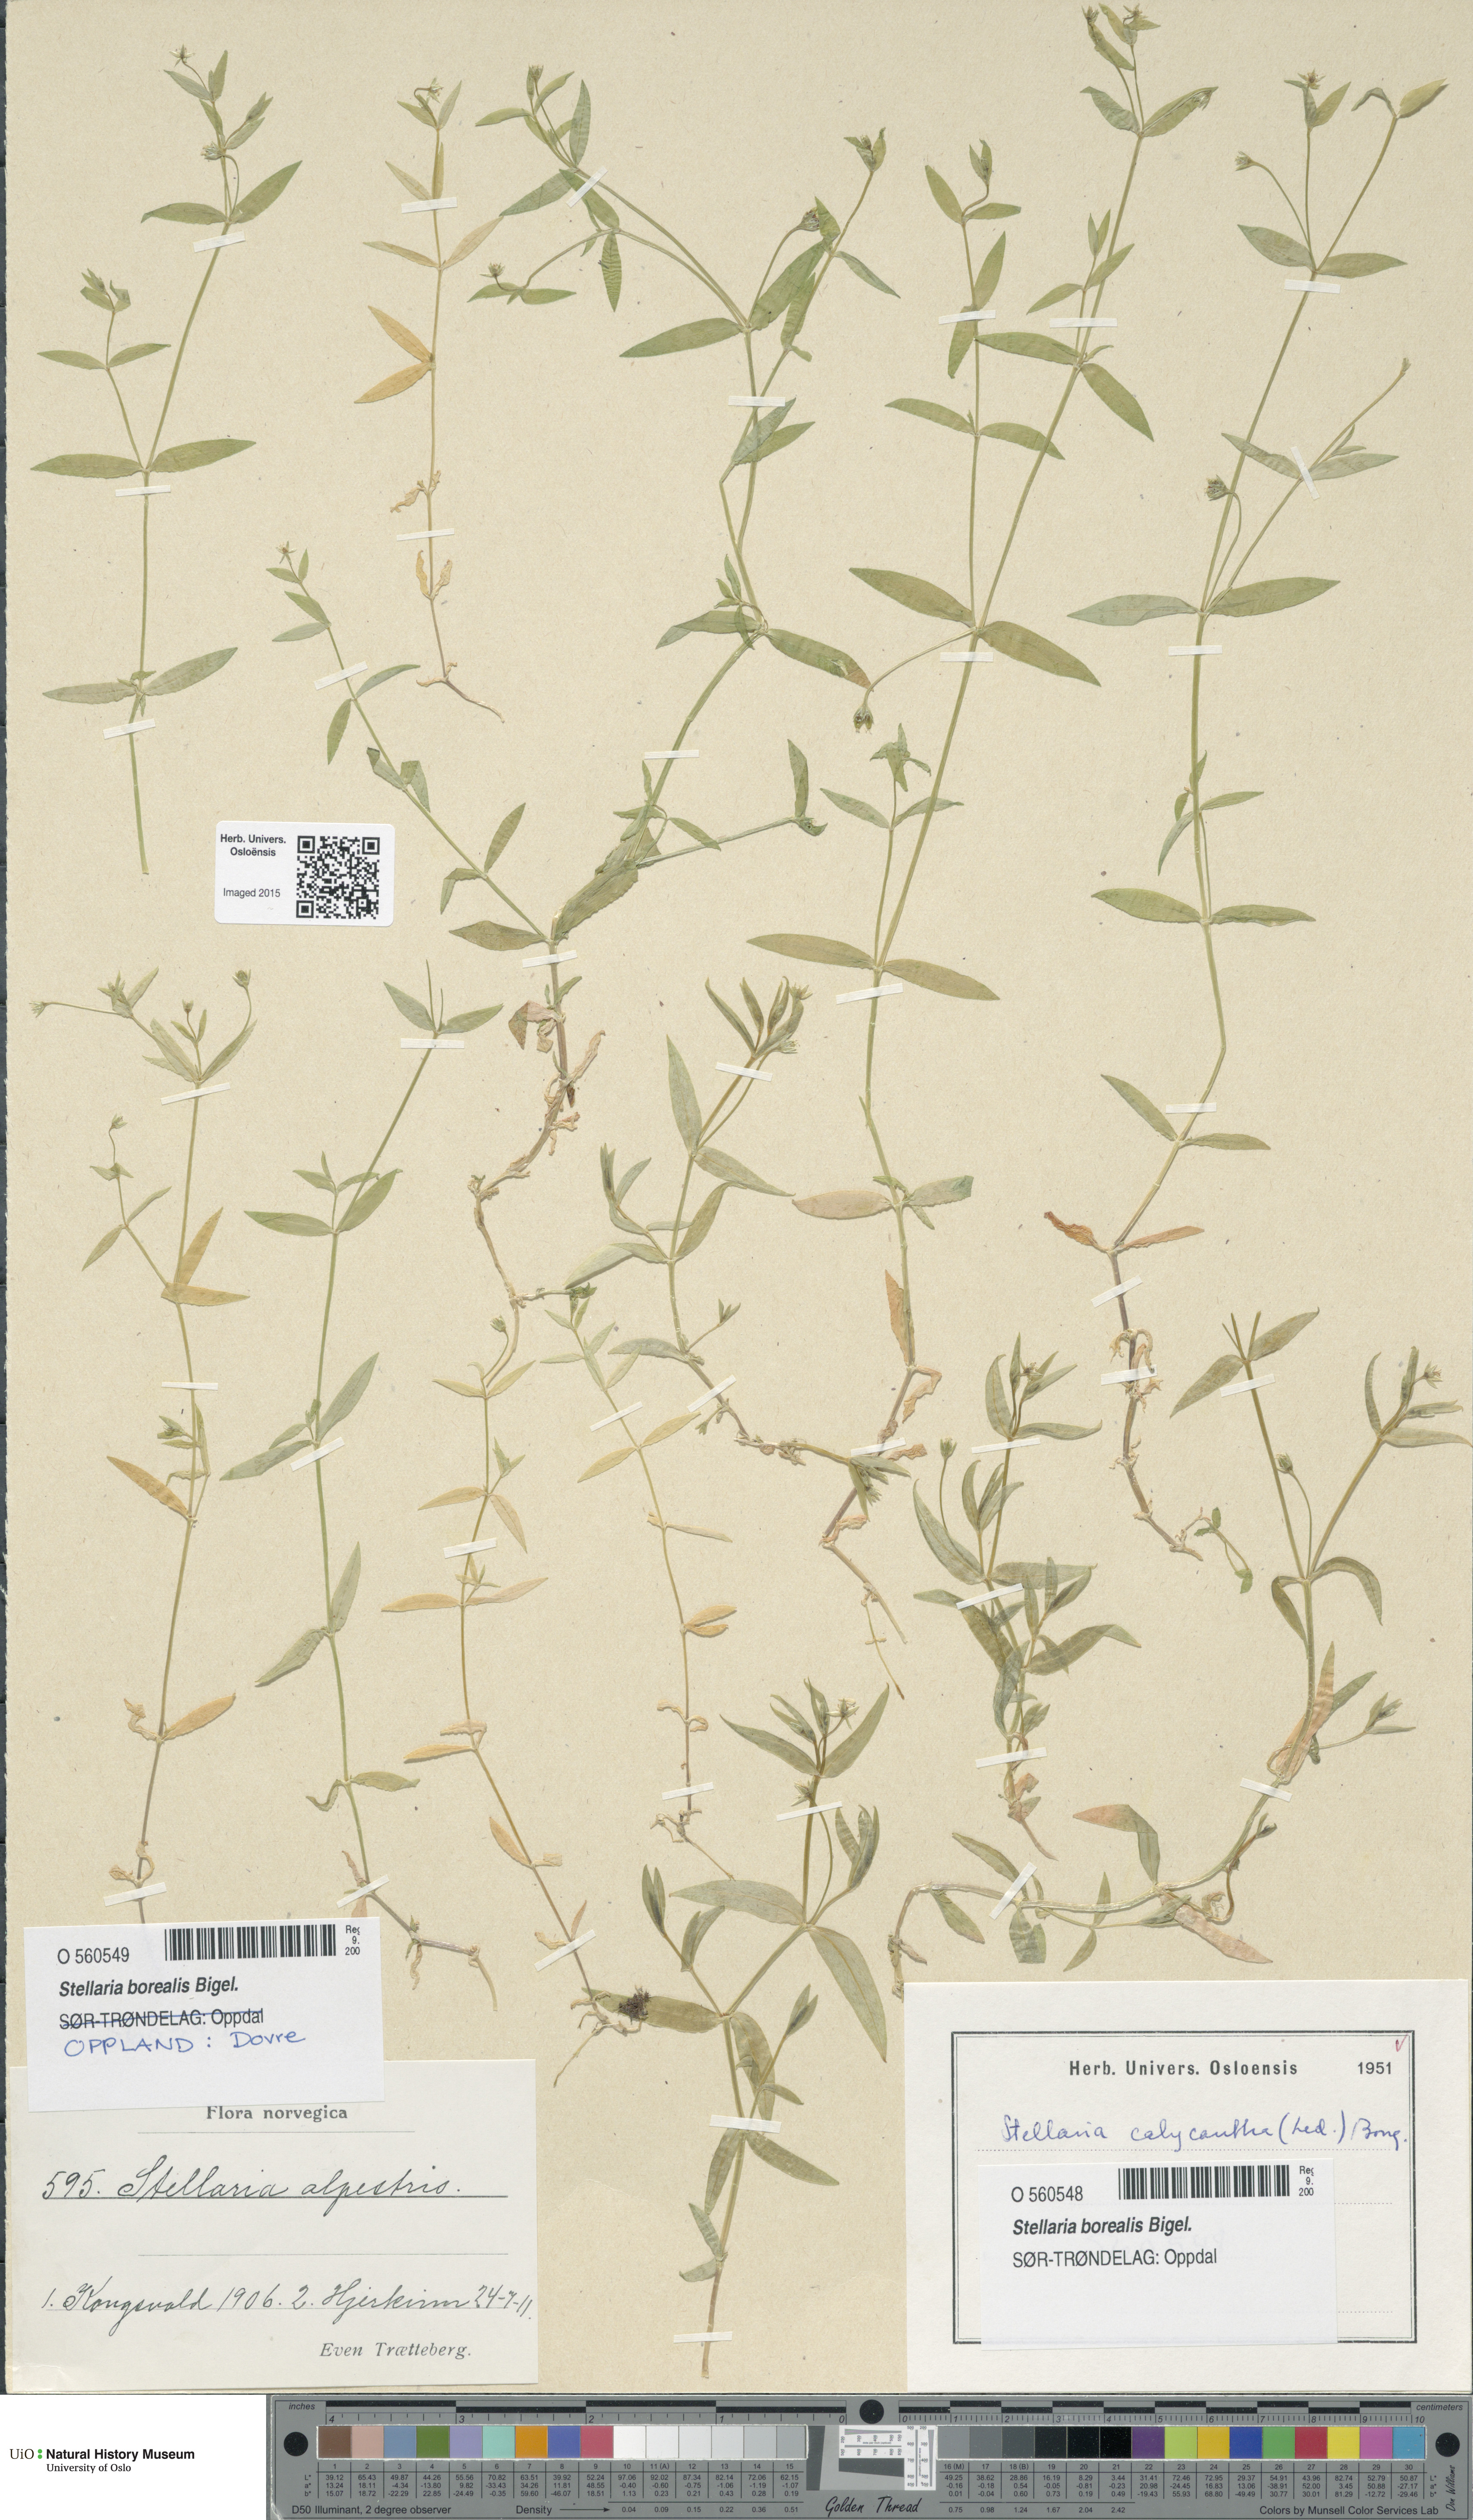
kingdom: Plantae
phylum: Tracheophyta
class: Magnoliopsida
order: Caryophyllales
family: Caryophyllaceae
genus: Stellaria
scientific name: Stellaria alpestris
